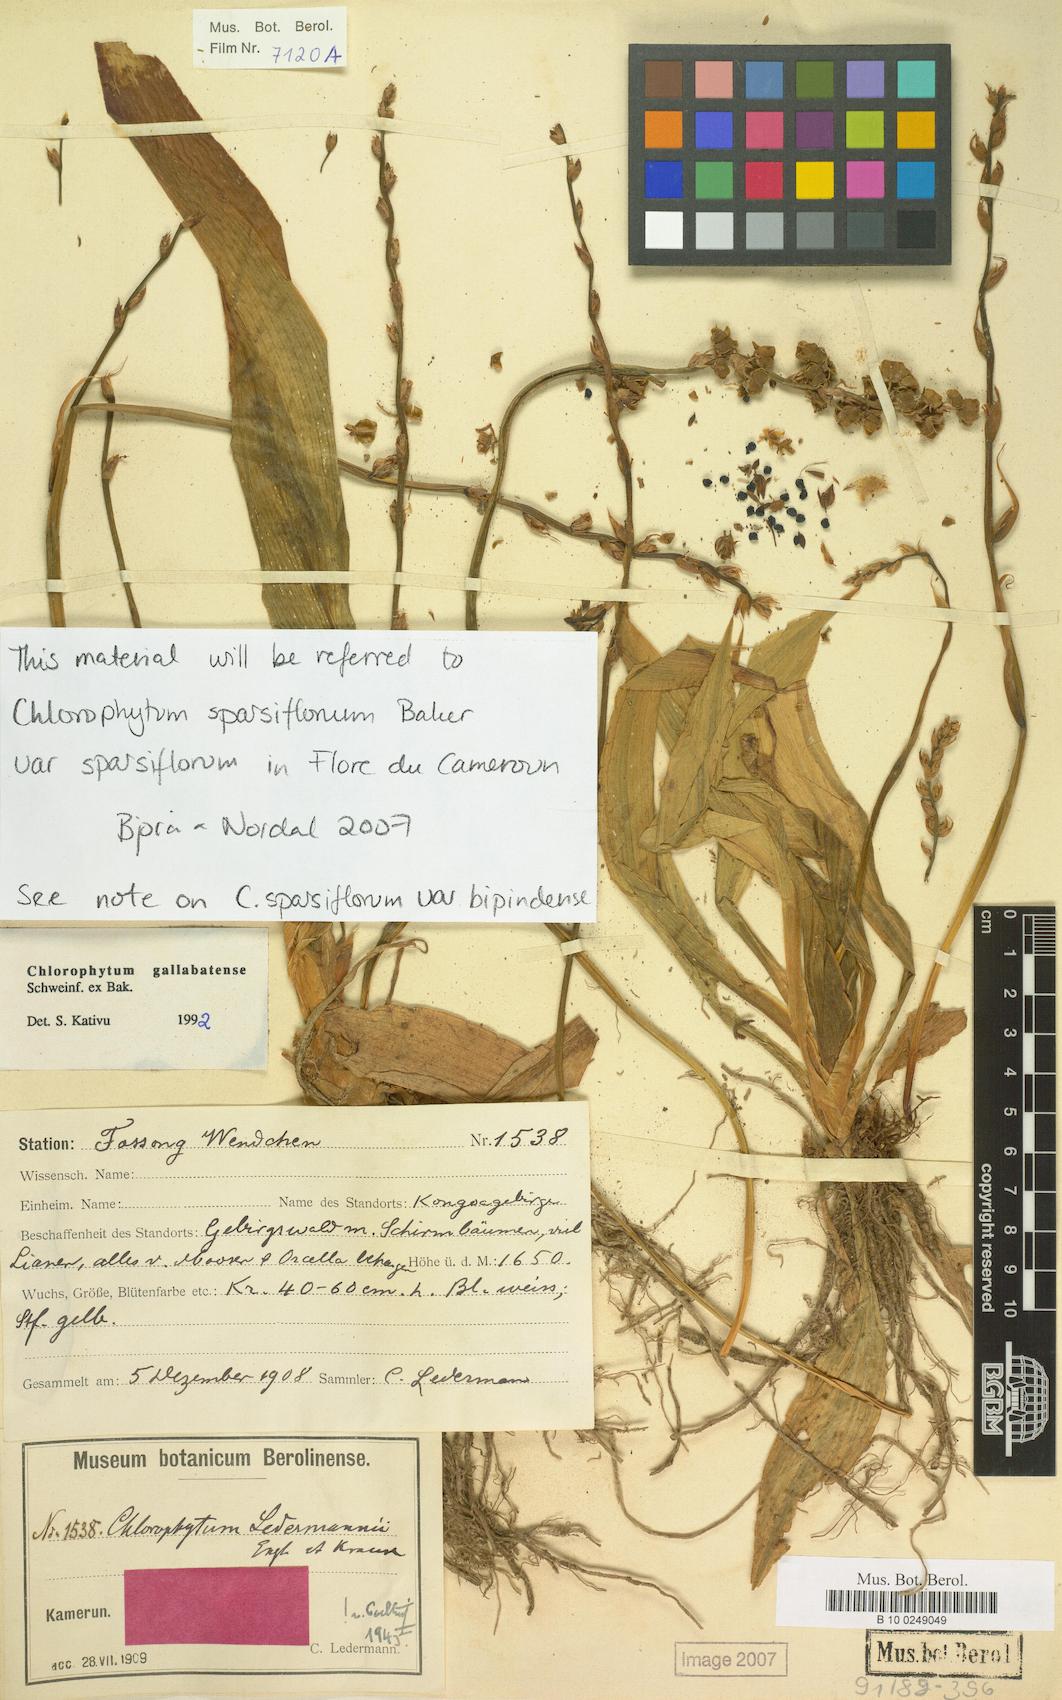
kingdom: Plantae
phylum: Tracheophyta
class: Liliopsida
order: Asparagales
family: Asparagaceae
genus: Chlorophytum
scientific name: Chlorophytum sparsiflorum
